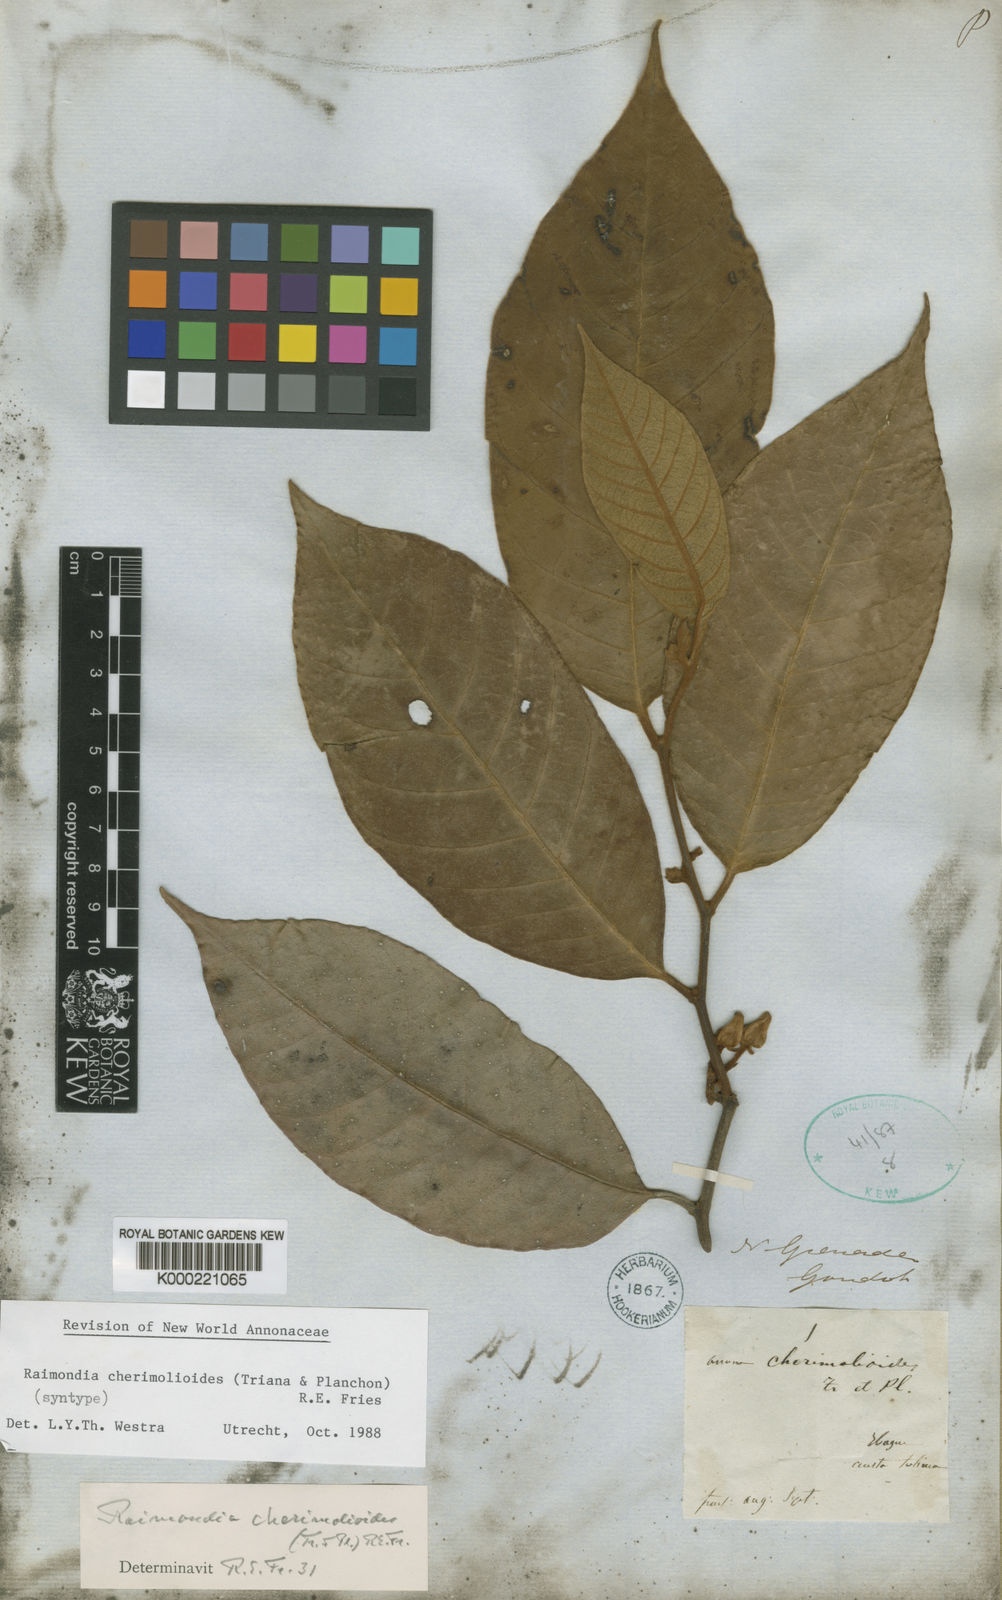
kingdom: Plantae
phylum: Tracheophyta
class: Magnoliopsida
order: Magnoliales
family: Annonaceae
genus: Annona
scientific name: Annona cherimolioides
